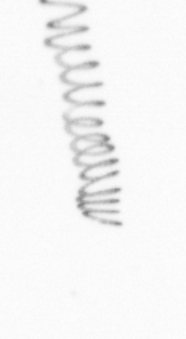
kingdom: Chromista
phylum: Ochrophyta
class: Bacillariophyceae
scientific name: Bacillariophyceae
